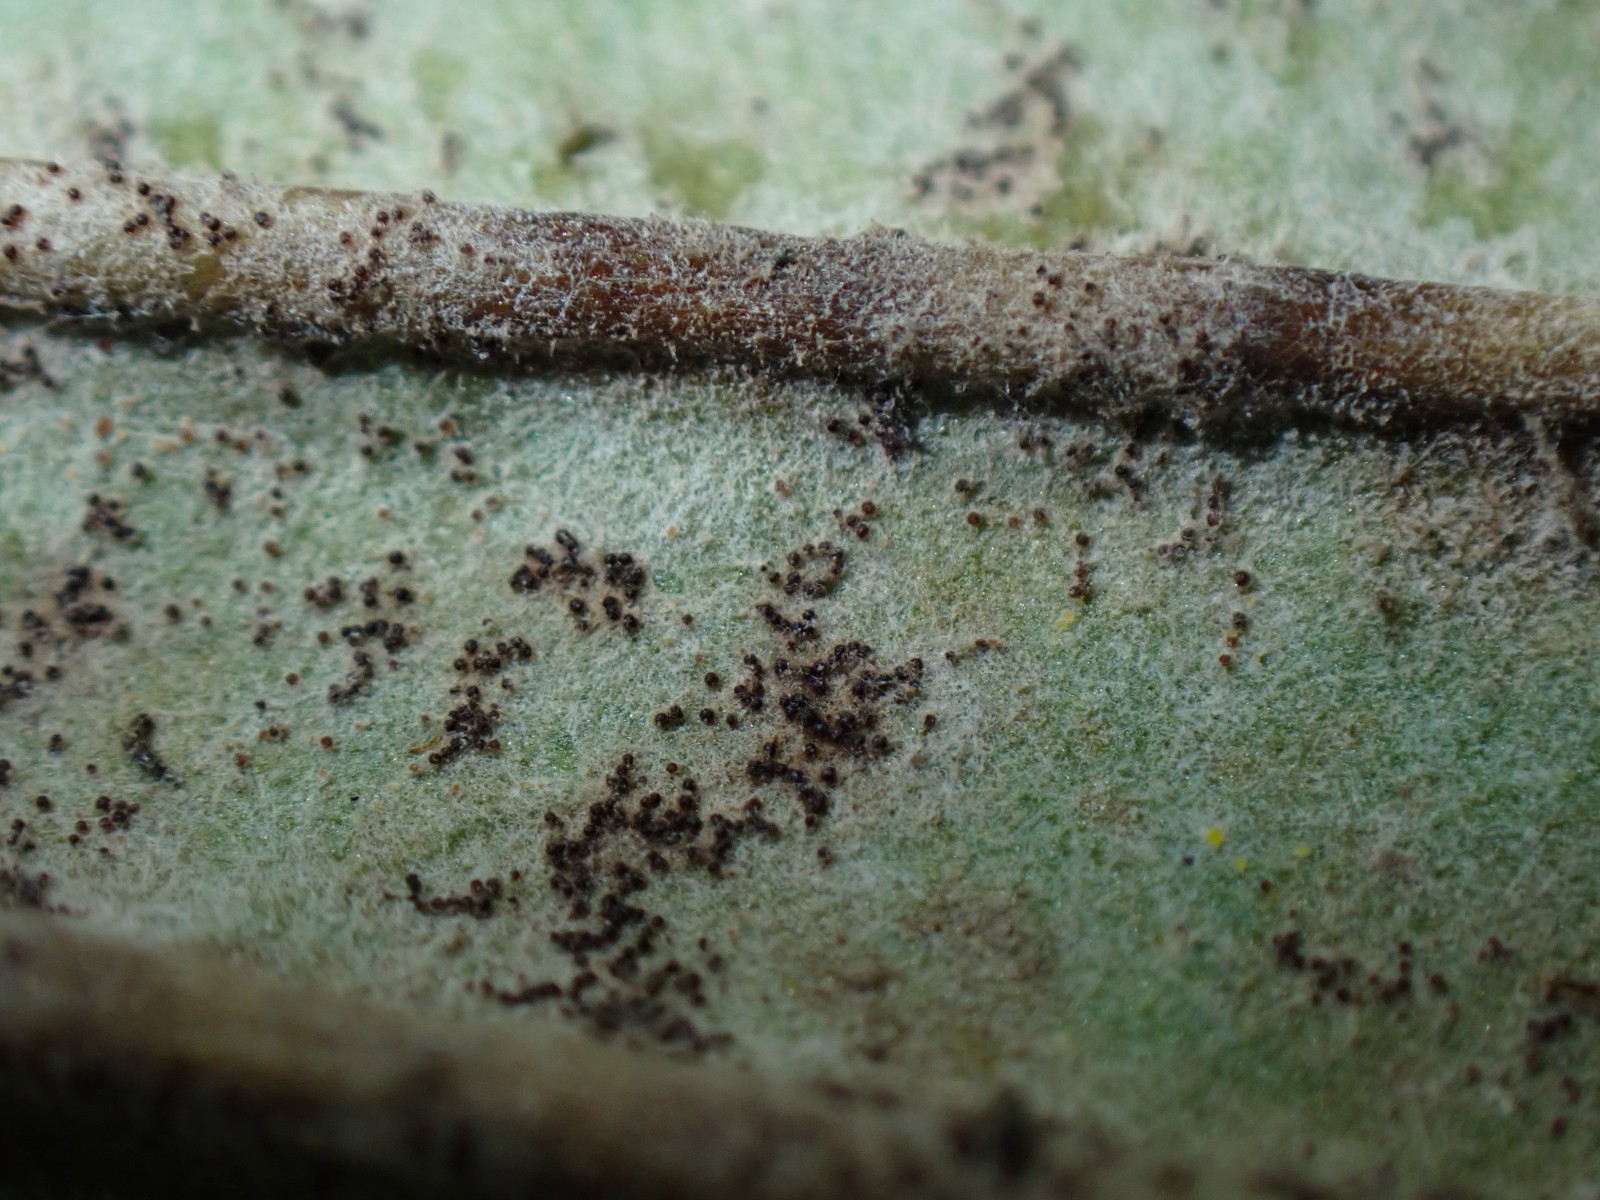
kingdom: Fungi
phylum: Ascomycota
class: Leotiomycetes
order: Helotiales
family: Erysiphaceae
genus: Golovinomyces
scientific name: Golovinomyces sordidus
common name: Plantain mildew
